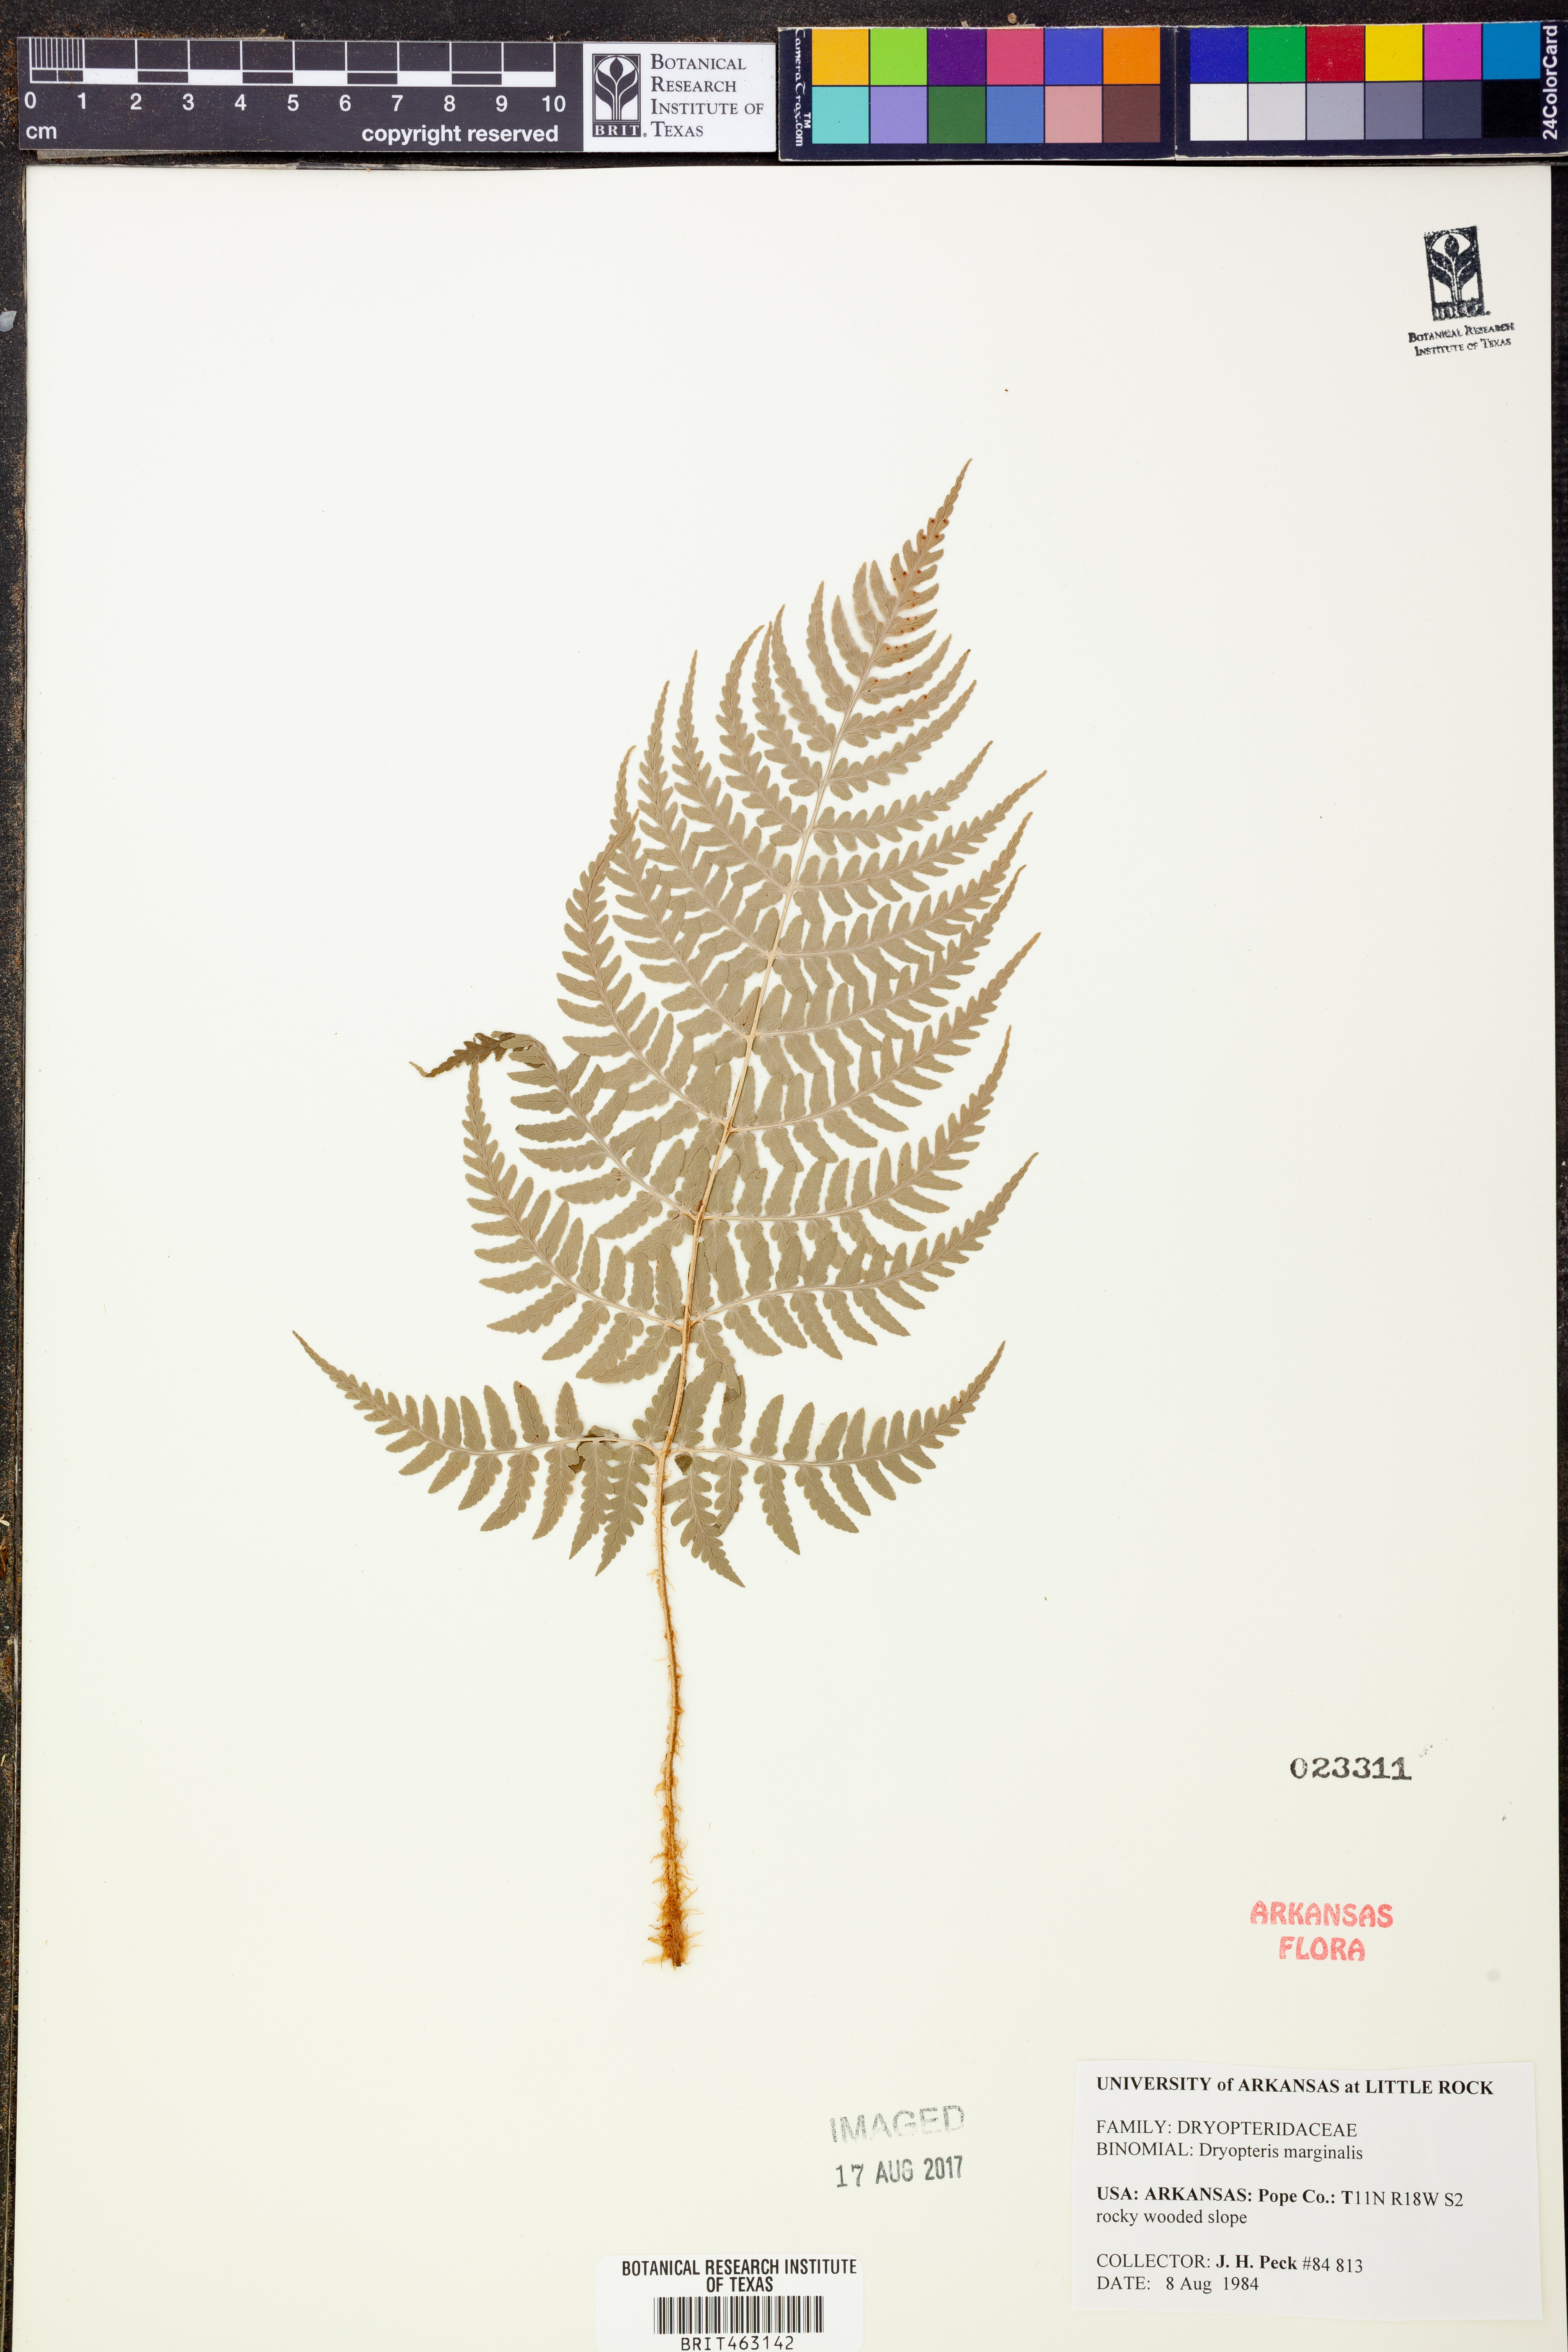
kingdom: Plantae
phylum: Tracheophyta
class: Polypodiopsida
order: Polypodiales
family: Dryopteridaceae
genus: Dryopteris
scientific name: Dryopteris marginalis
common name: Marginal wood fern
